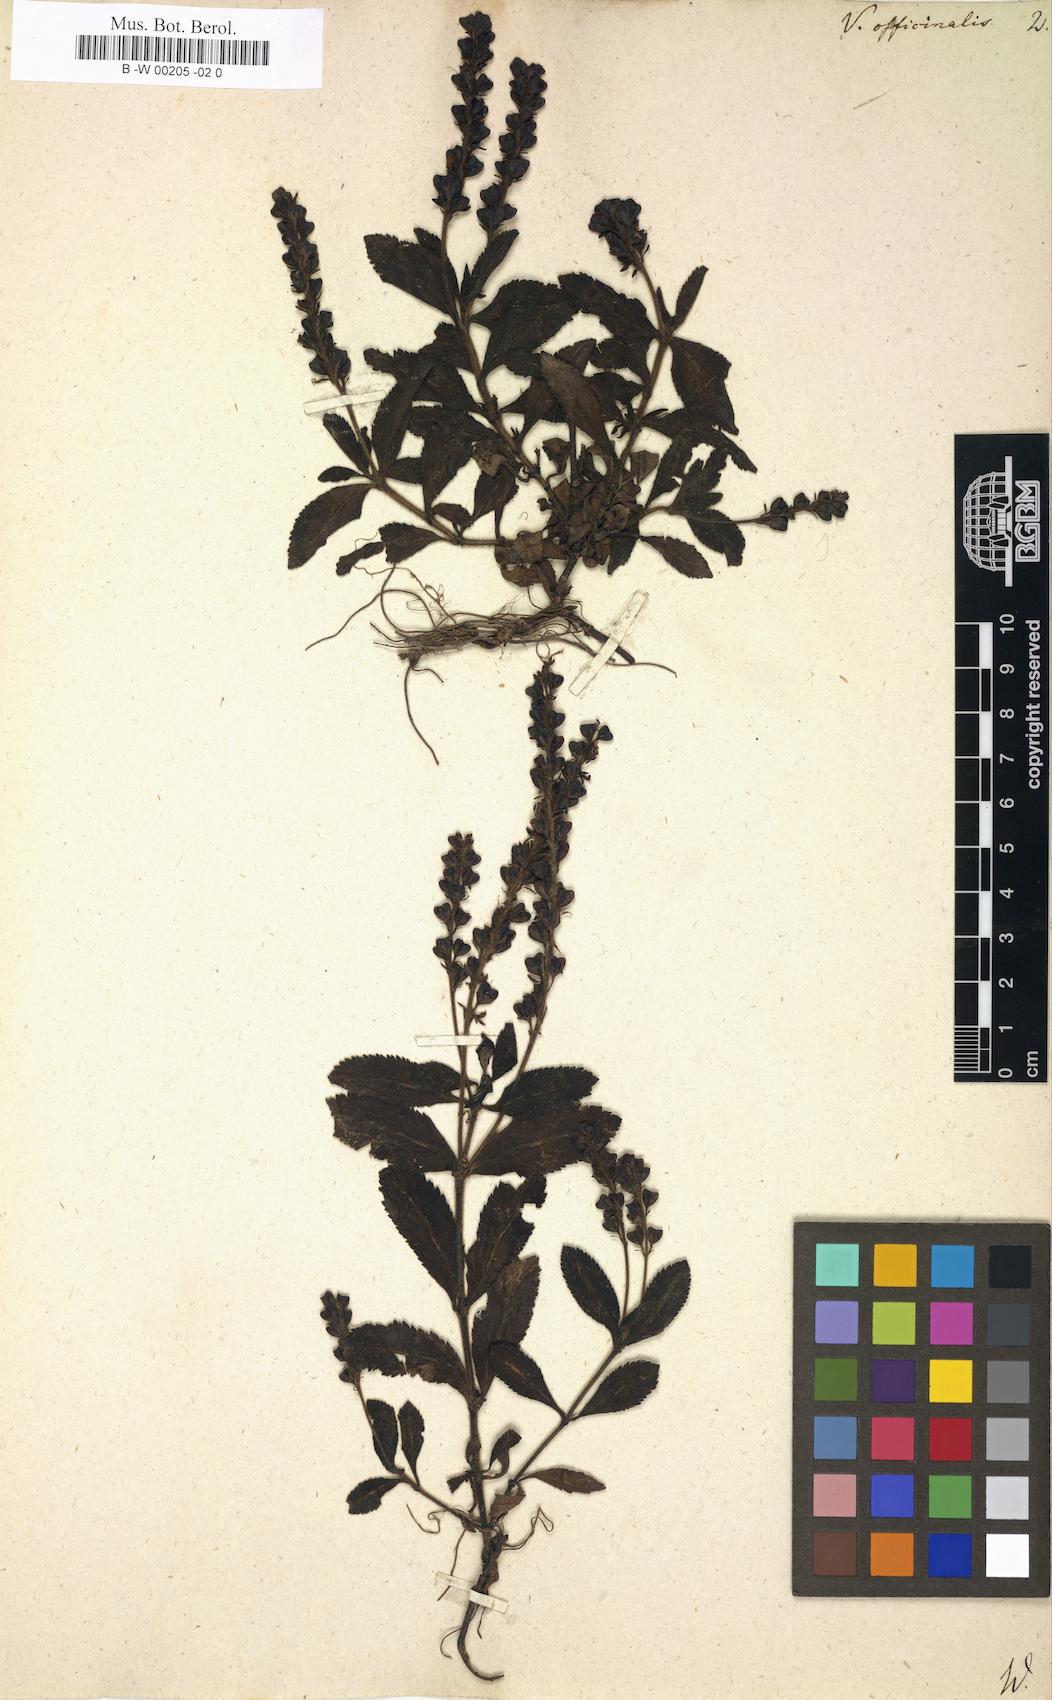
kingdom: Plantae
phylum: Tracheophyta
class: Magnoliopsida
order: Lamiales
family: Plantaginaceae
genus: Veronica
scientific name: Veronica officinalis
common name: Common speedwell
